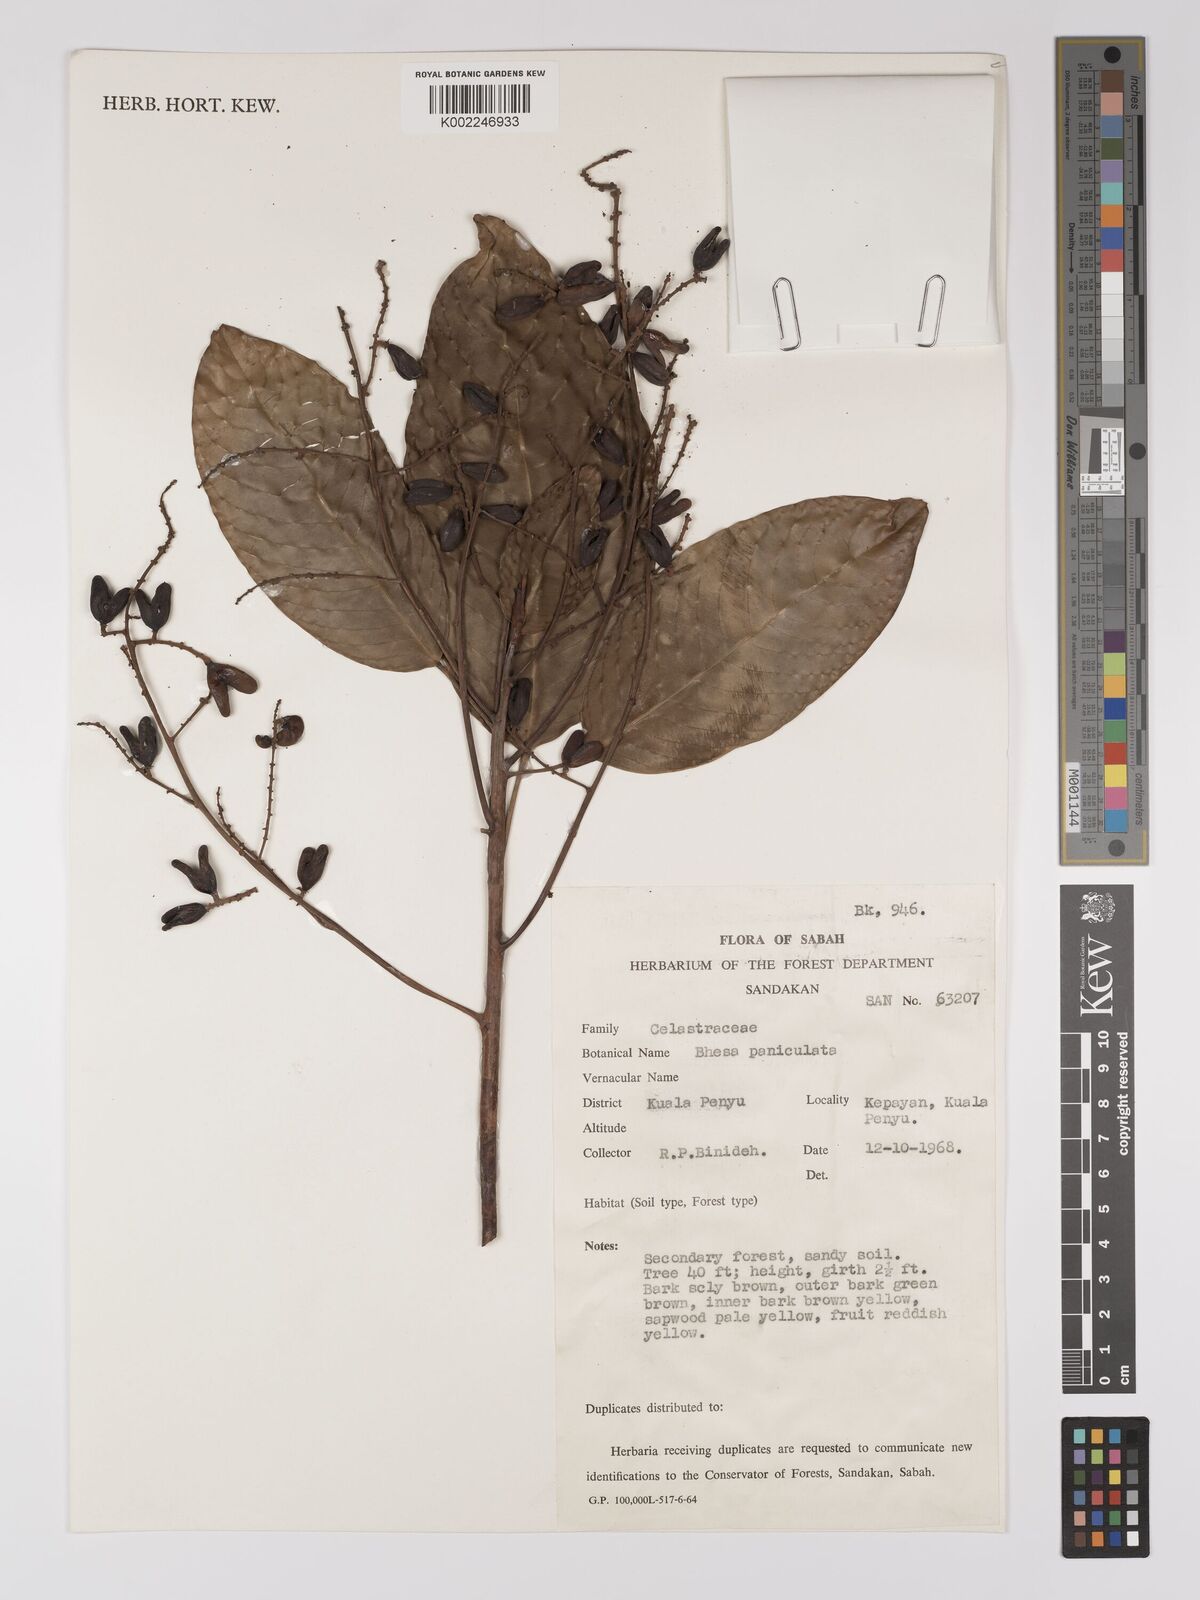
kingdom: Plantae
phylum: Tracheophyta
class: Magnoliopsida
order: Malpighiales
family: Centroplacaceae
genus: Bhesa
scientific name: Bhesa paniculata
